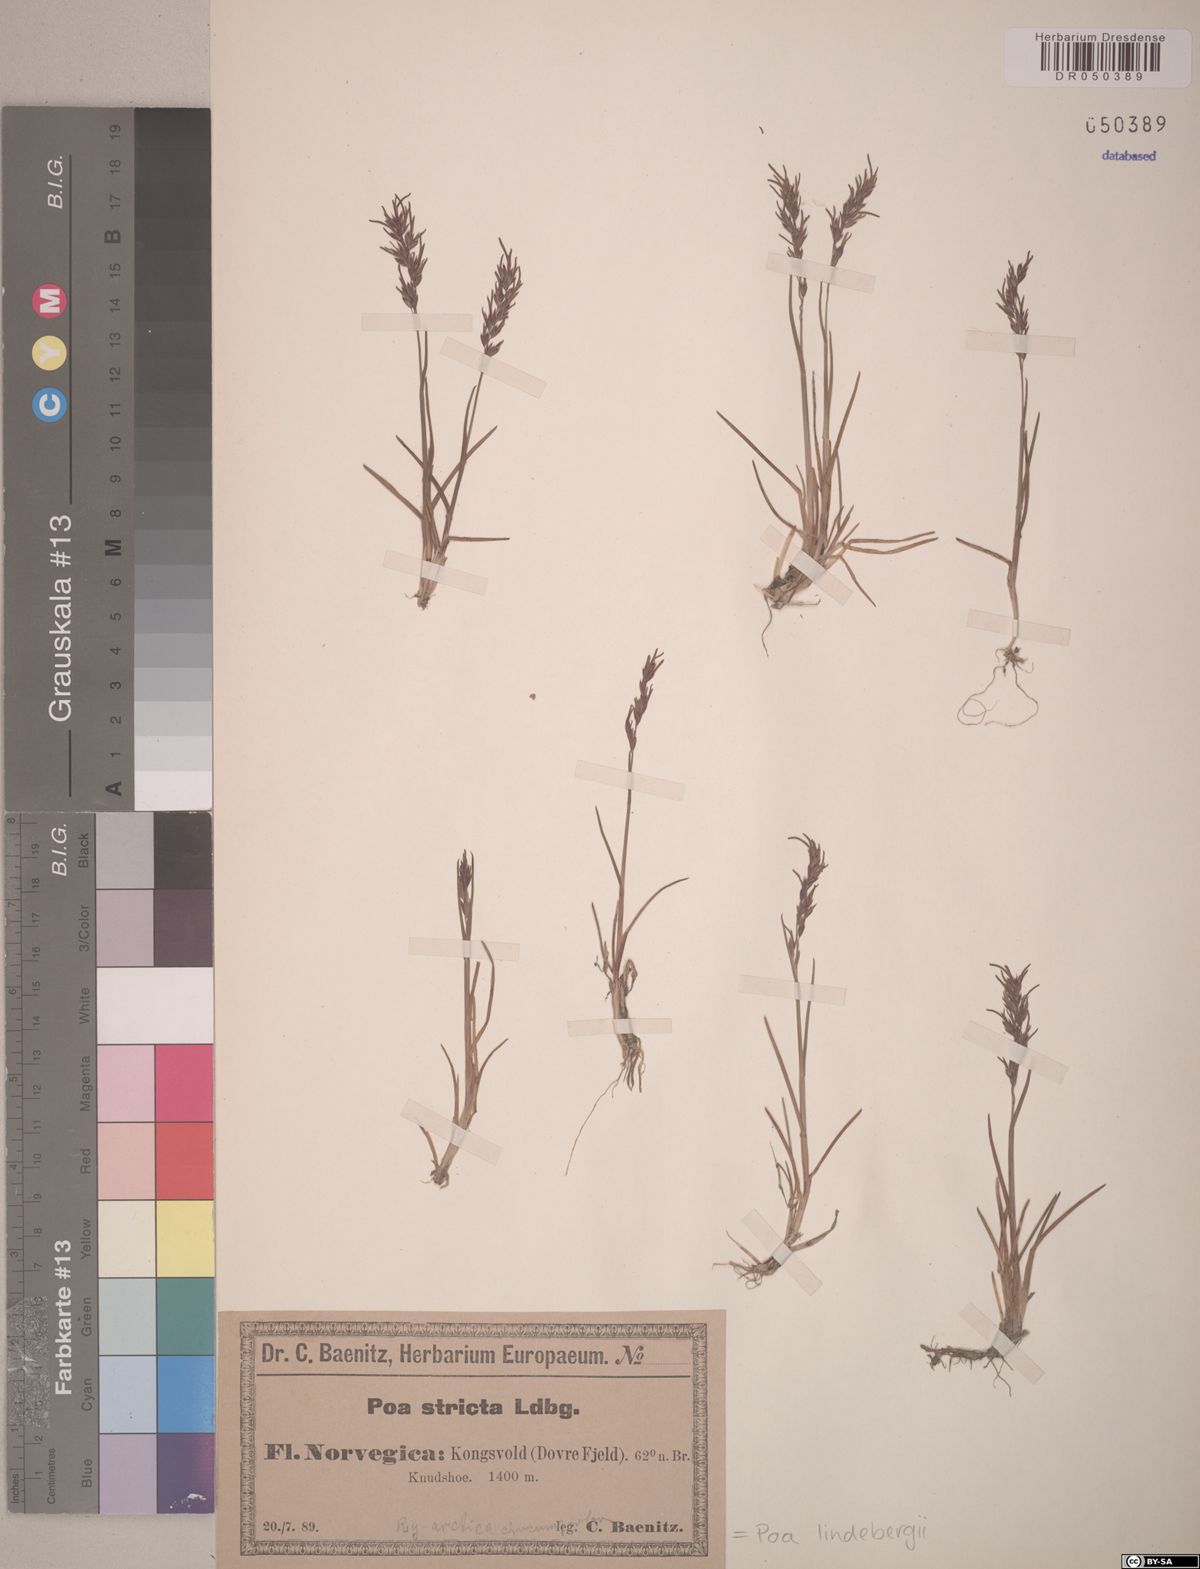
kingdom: Plantae
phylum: Tracheophyta
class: Liliopsida
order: Poales
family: Poaceae
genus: Poa
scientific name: Poa lindebergii
